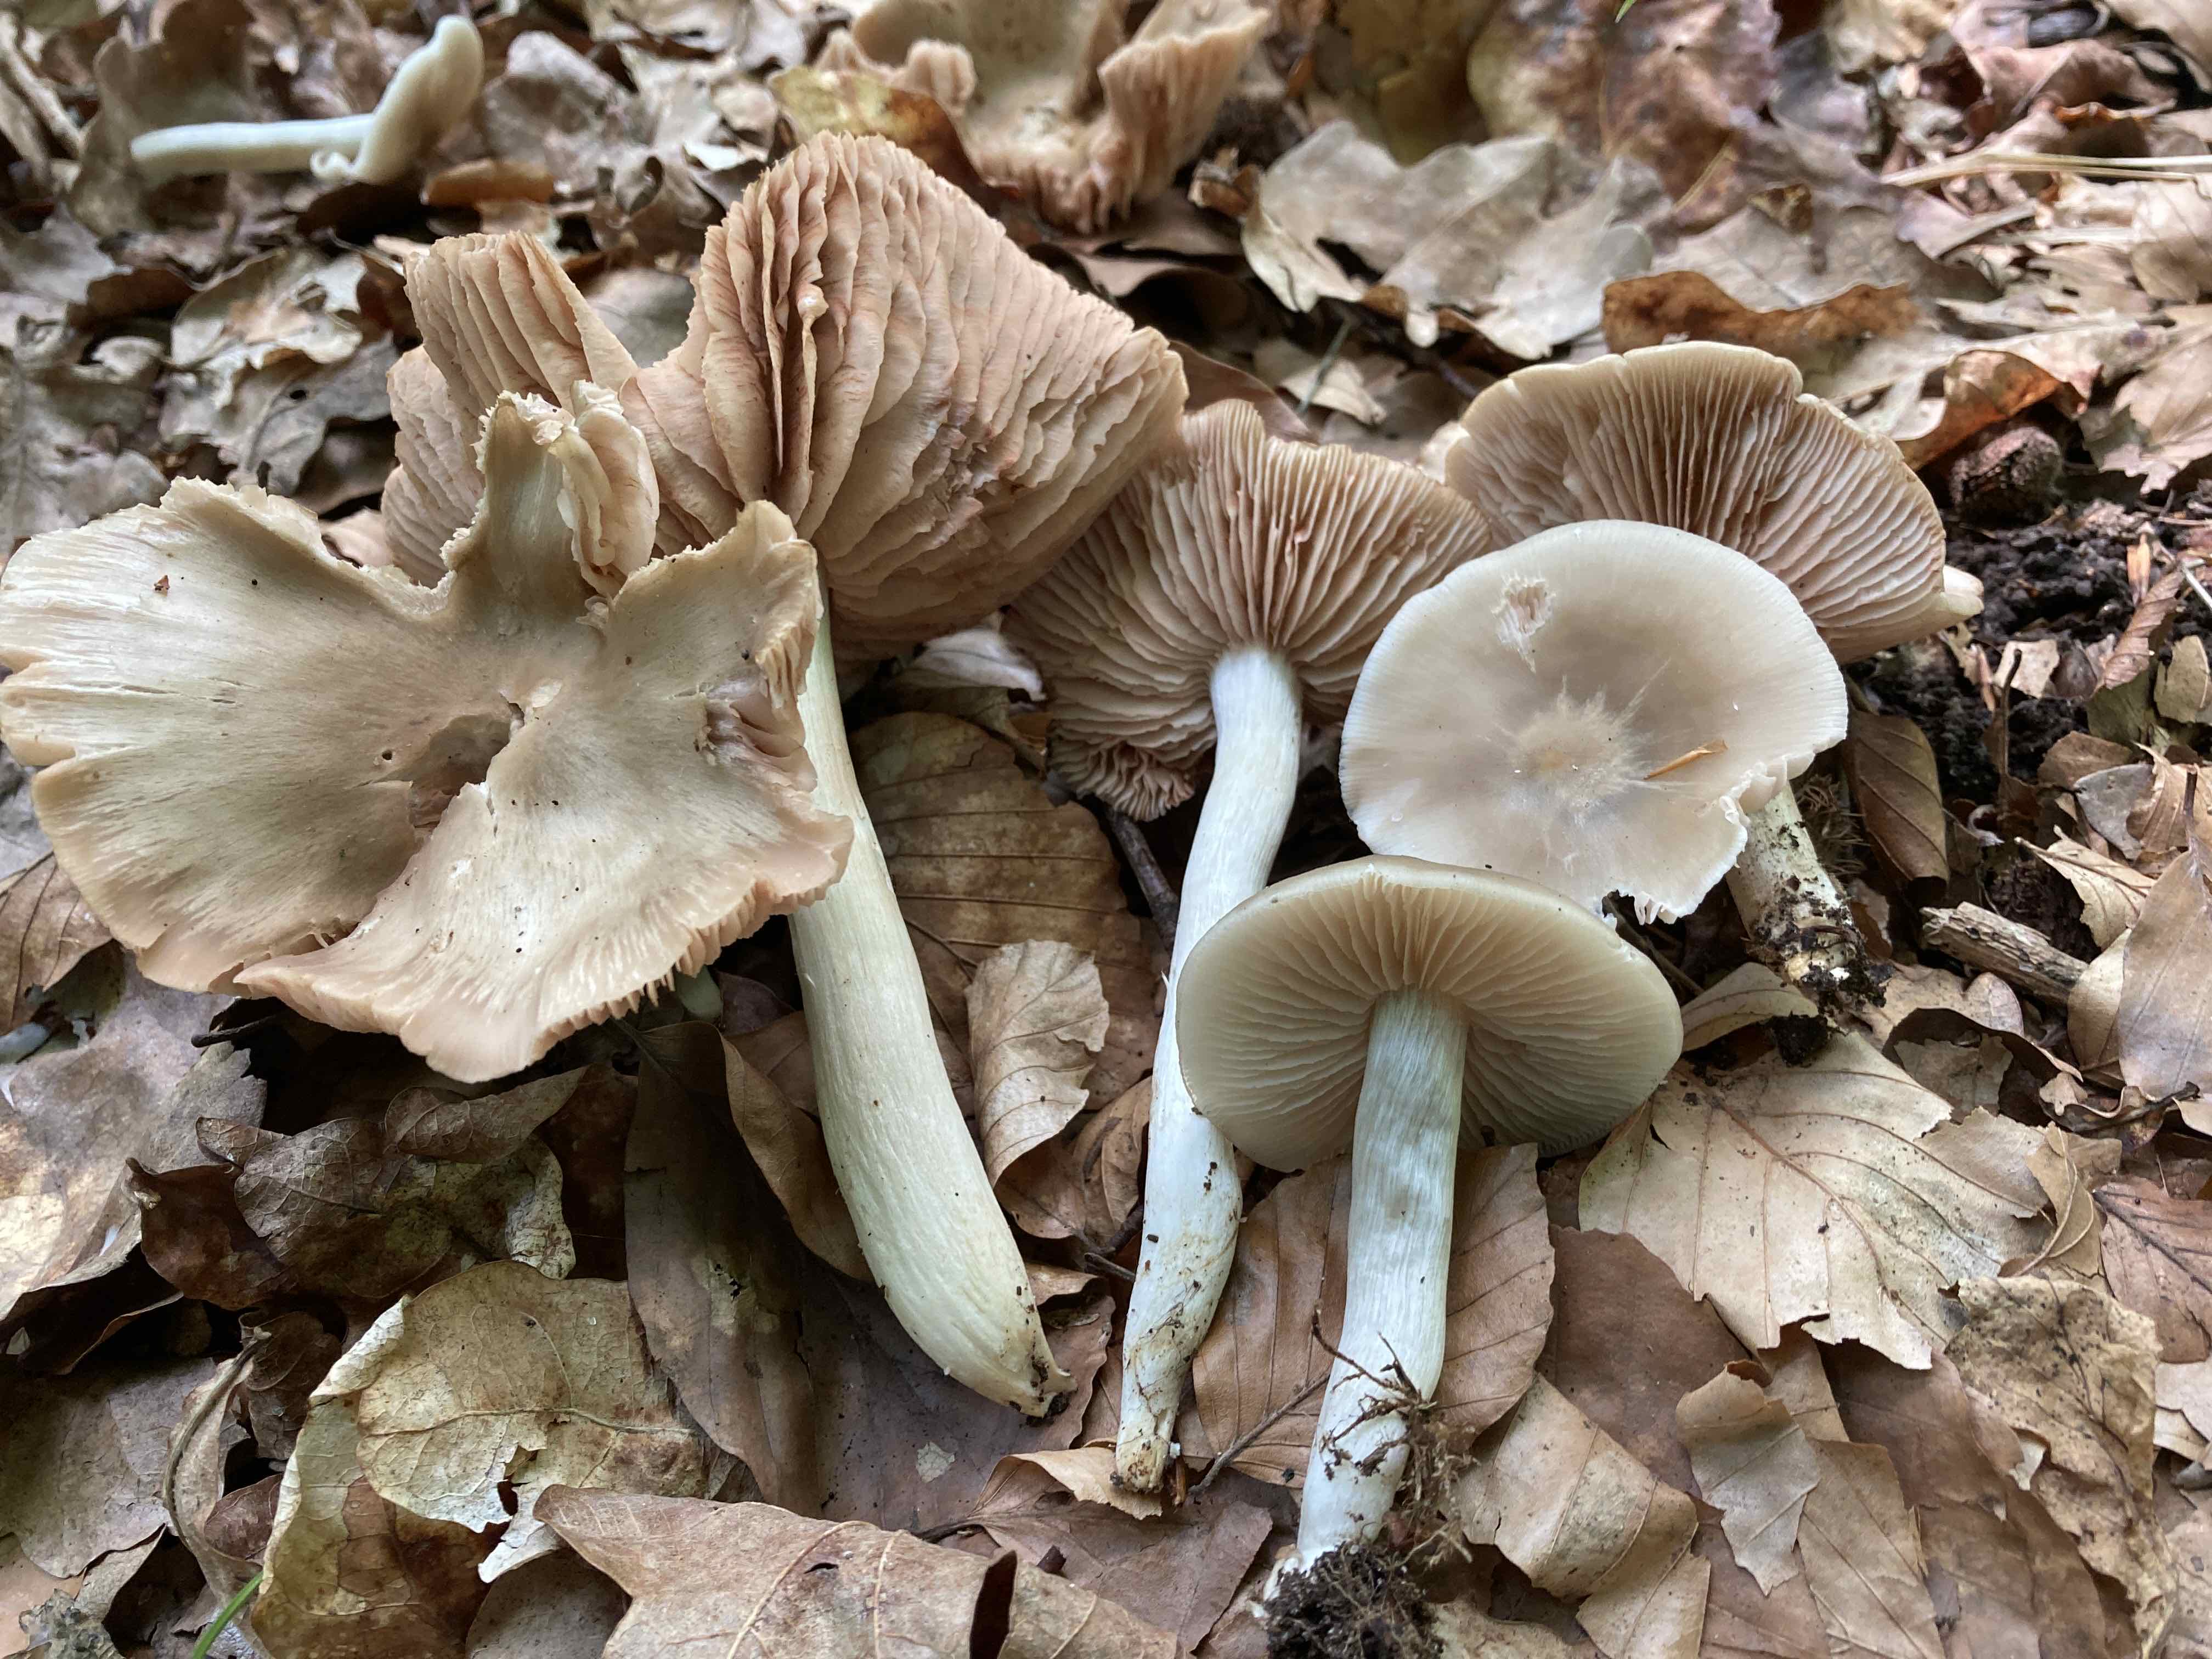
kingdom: Fungi
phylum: Basidiomycota
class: Agaricomycetes
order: Agaricales
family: Entolomataceae
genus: Entoloma
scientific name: Entoloma
